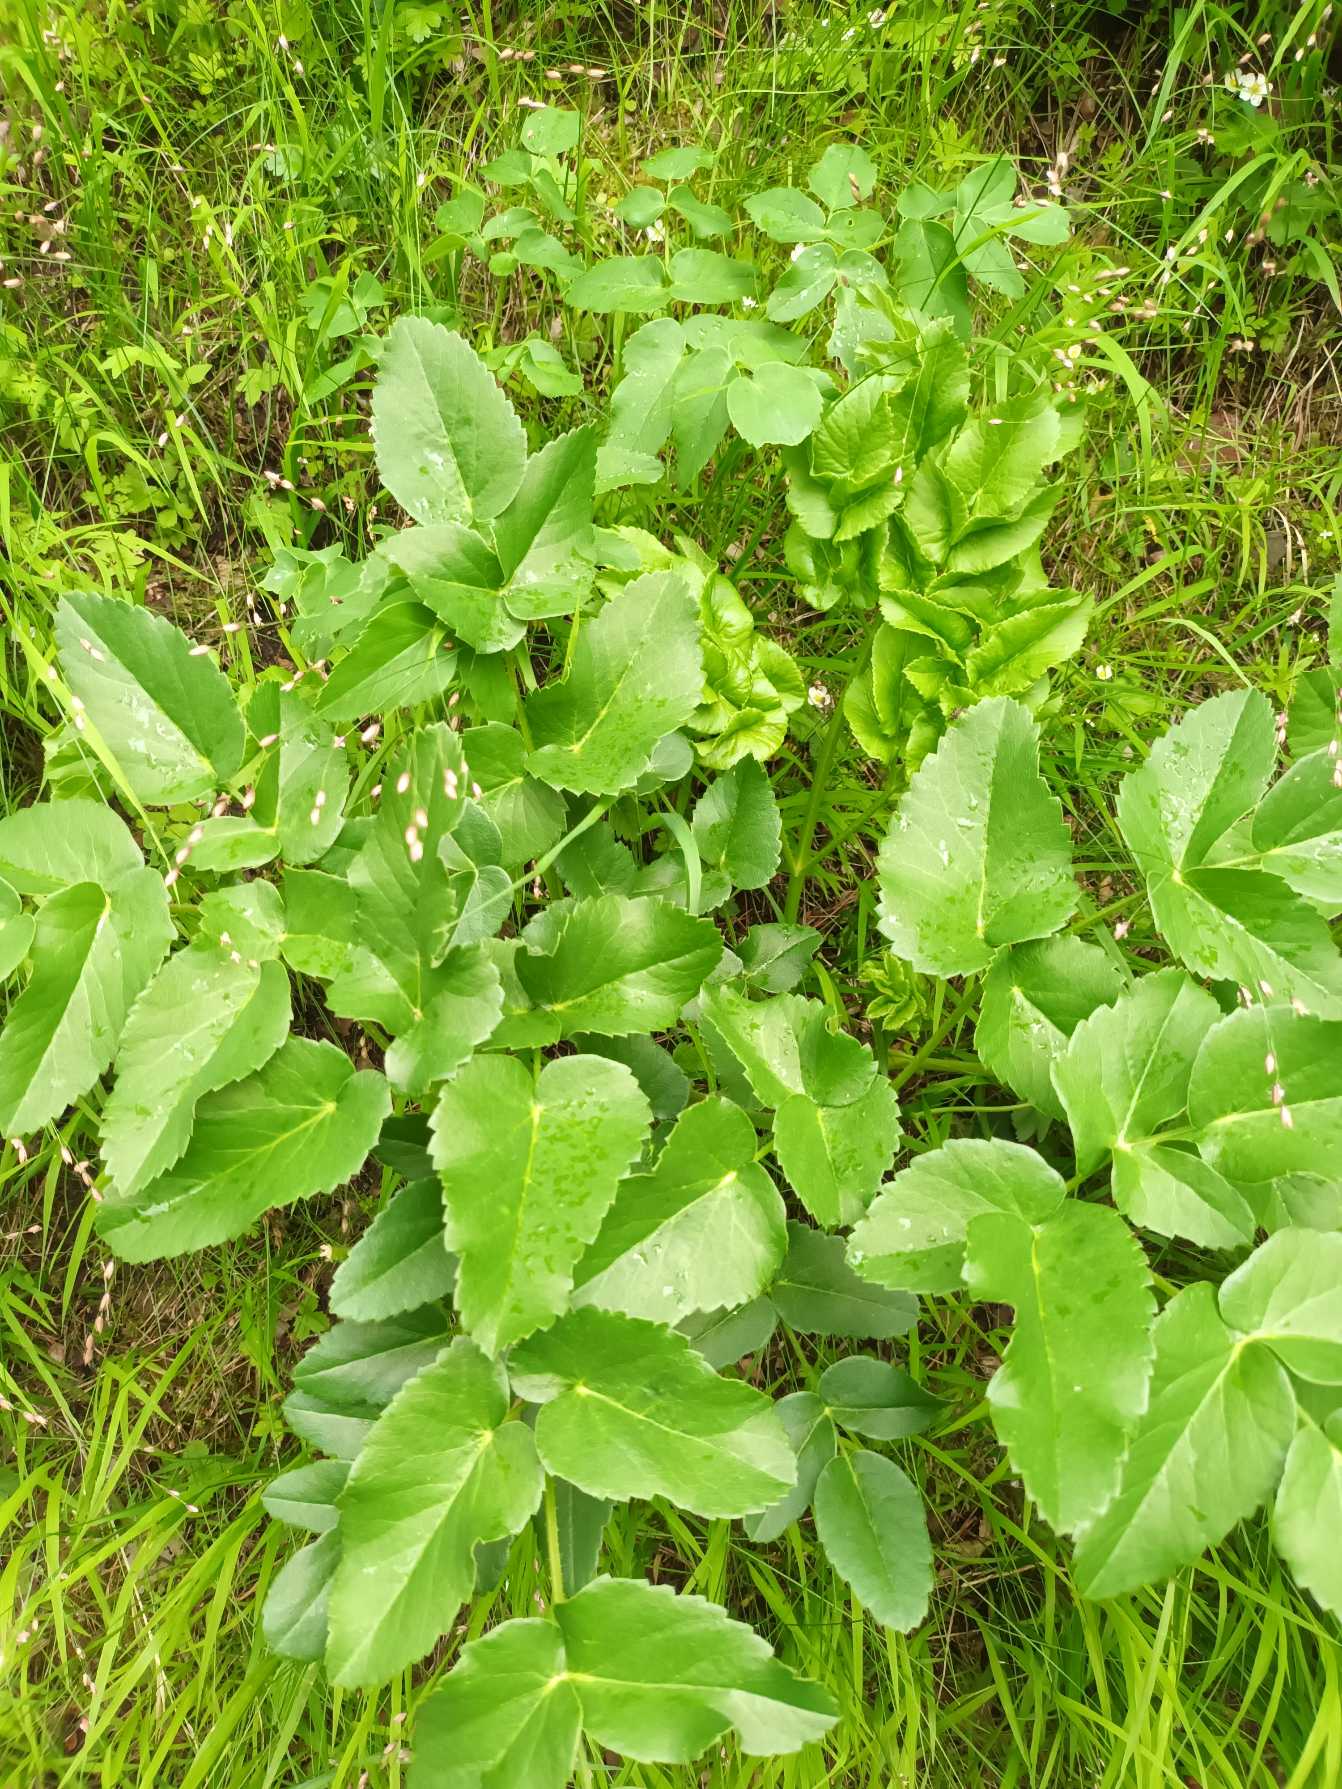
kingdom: Plantae
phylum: Tracheophyta
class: Magnoliopsida
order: Apiales
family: Apiaceae
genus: Laserpitium
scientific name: Laserpitium latifolium
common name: Foldfrø
